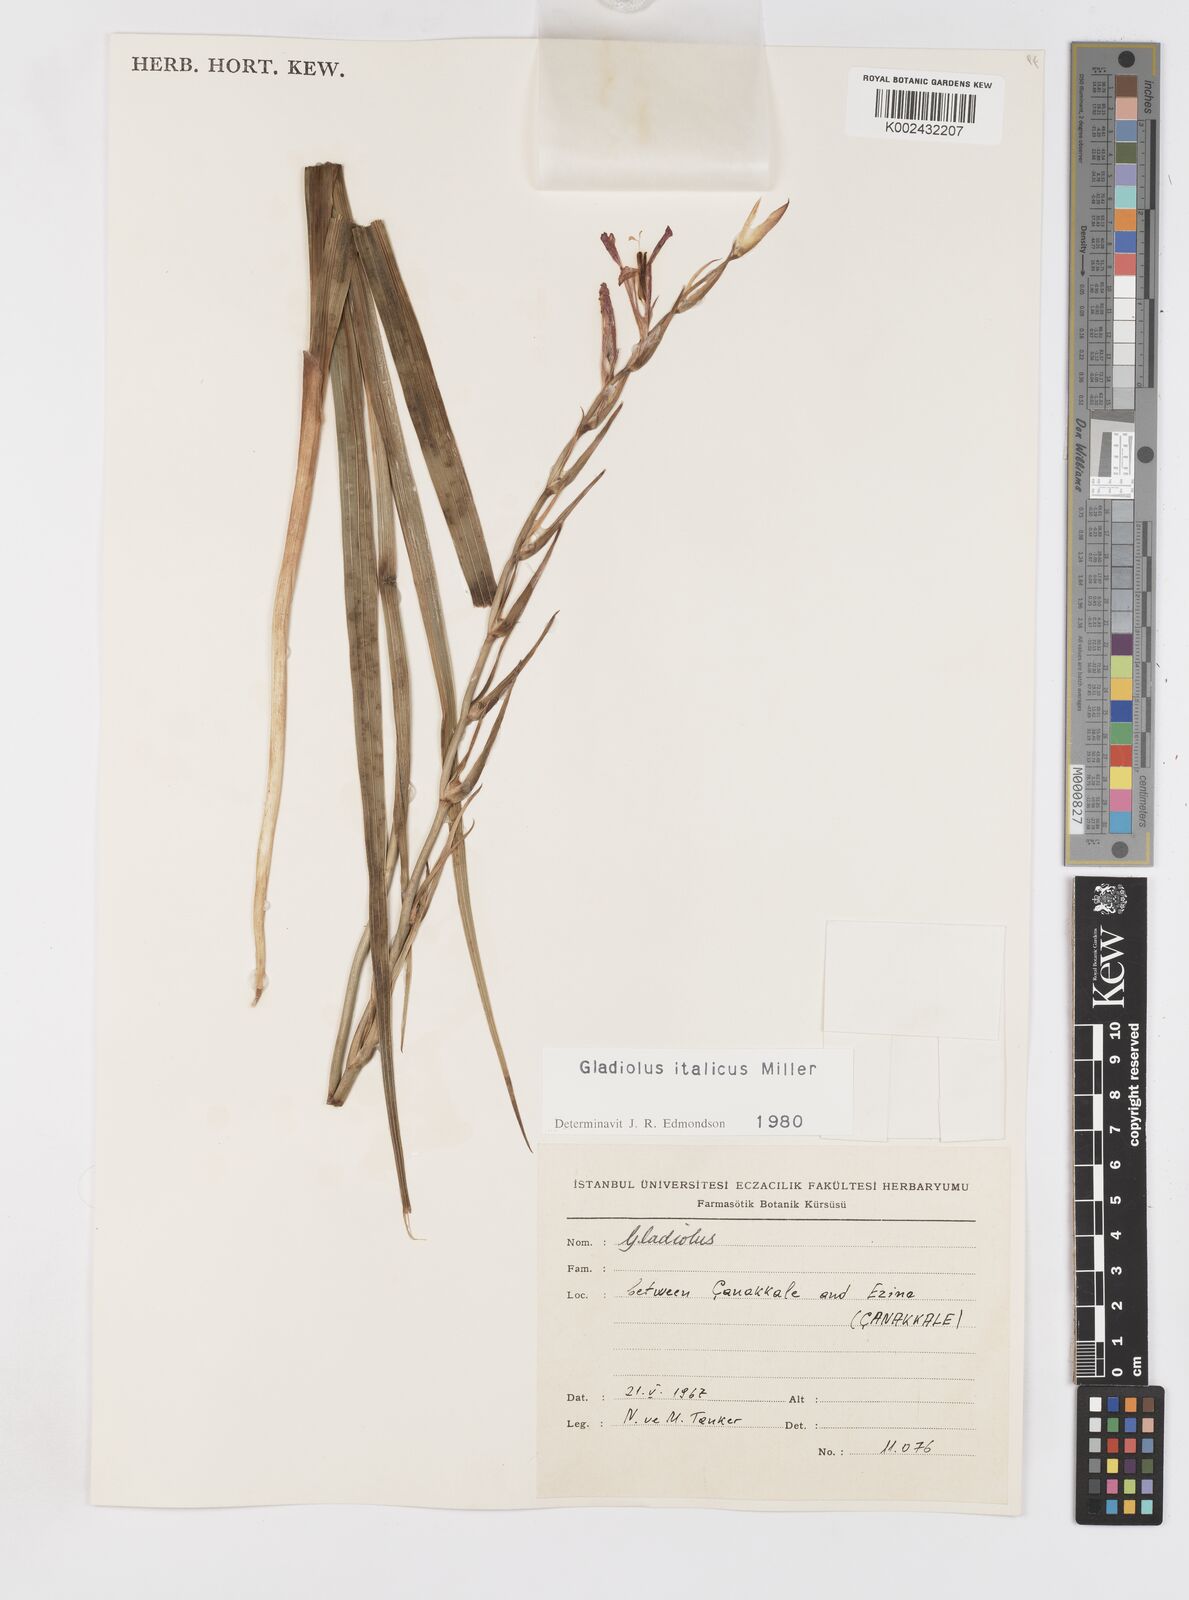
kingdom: Plantae
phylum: Tracheophyta
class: Liliopsida
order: Asparagales
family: Iridaceae
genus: Gladiolus
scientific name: Gladiolus italicus
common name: Field gladiolus
